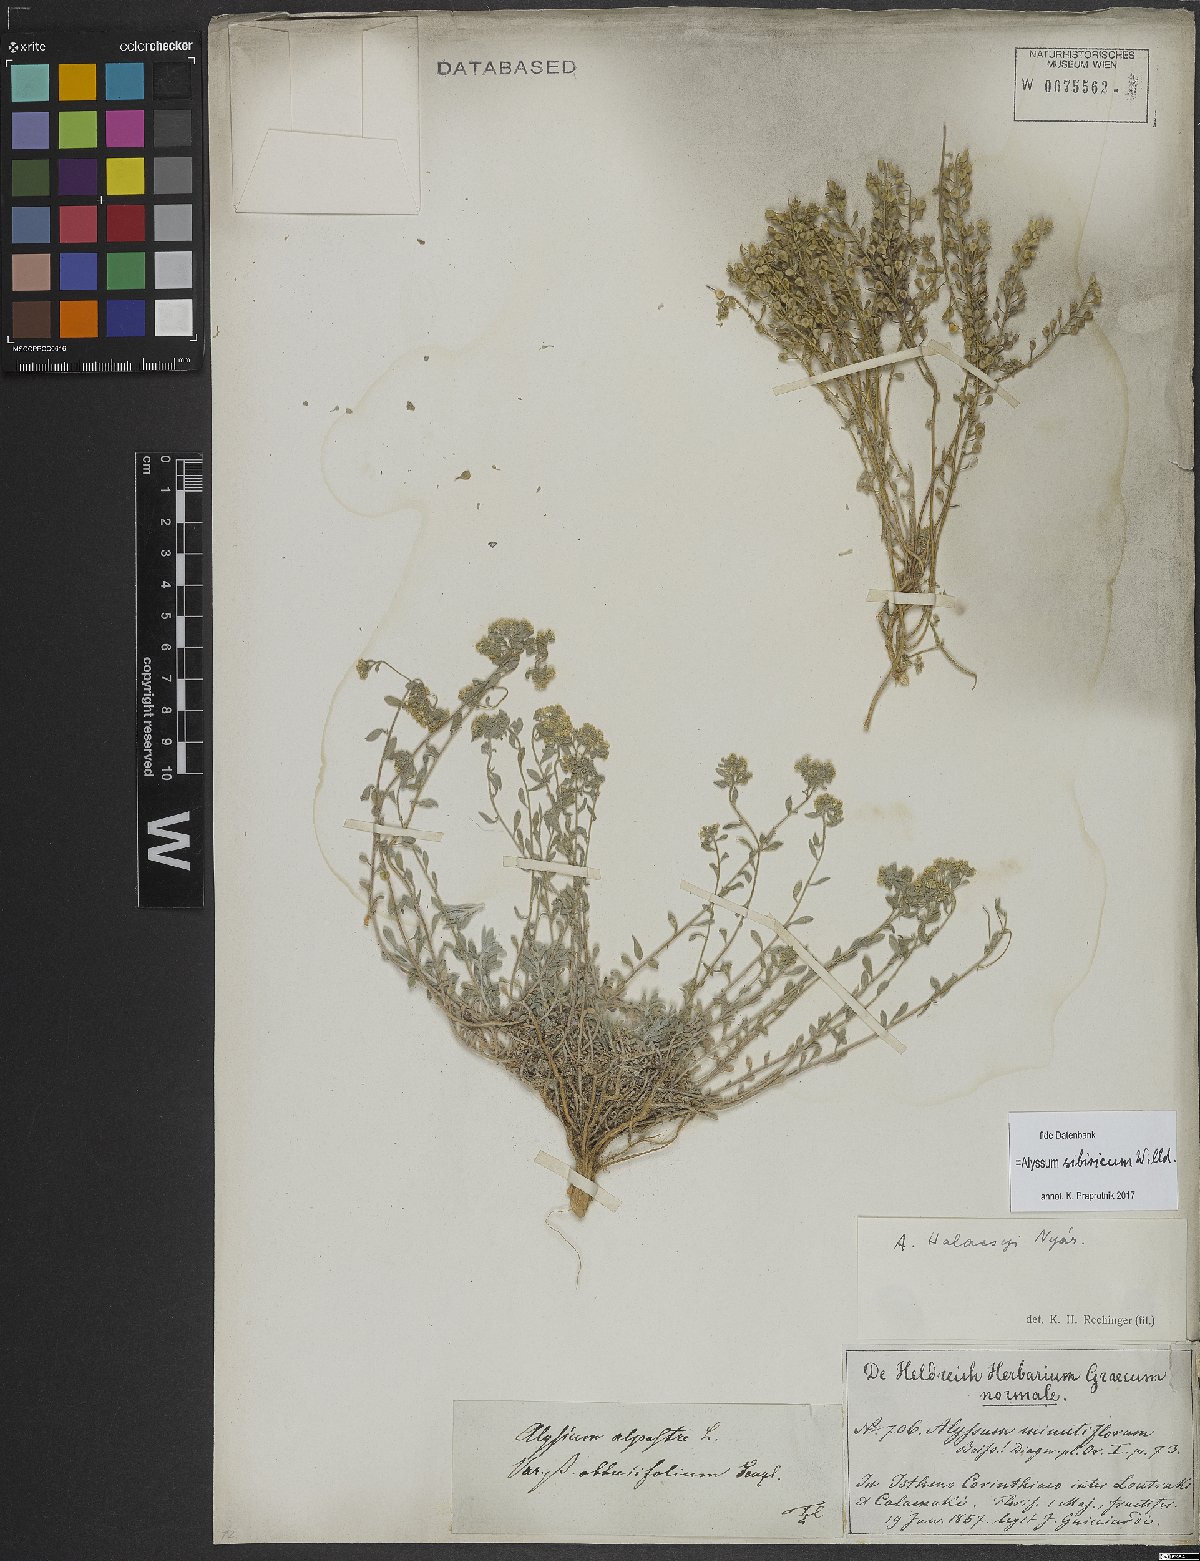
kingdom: Plantae
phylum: Tracheophyta
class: Magnoliopsida
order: Brassicales
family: Brassicaceae
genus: Odontarrhena
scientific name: Odontarrhena sibirica
